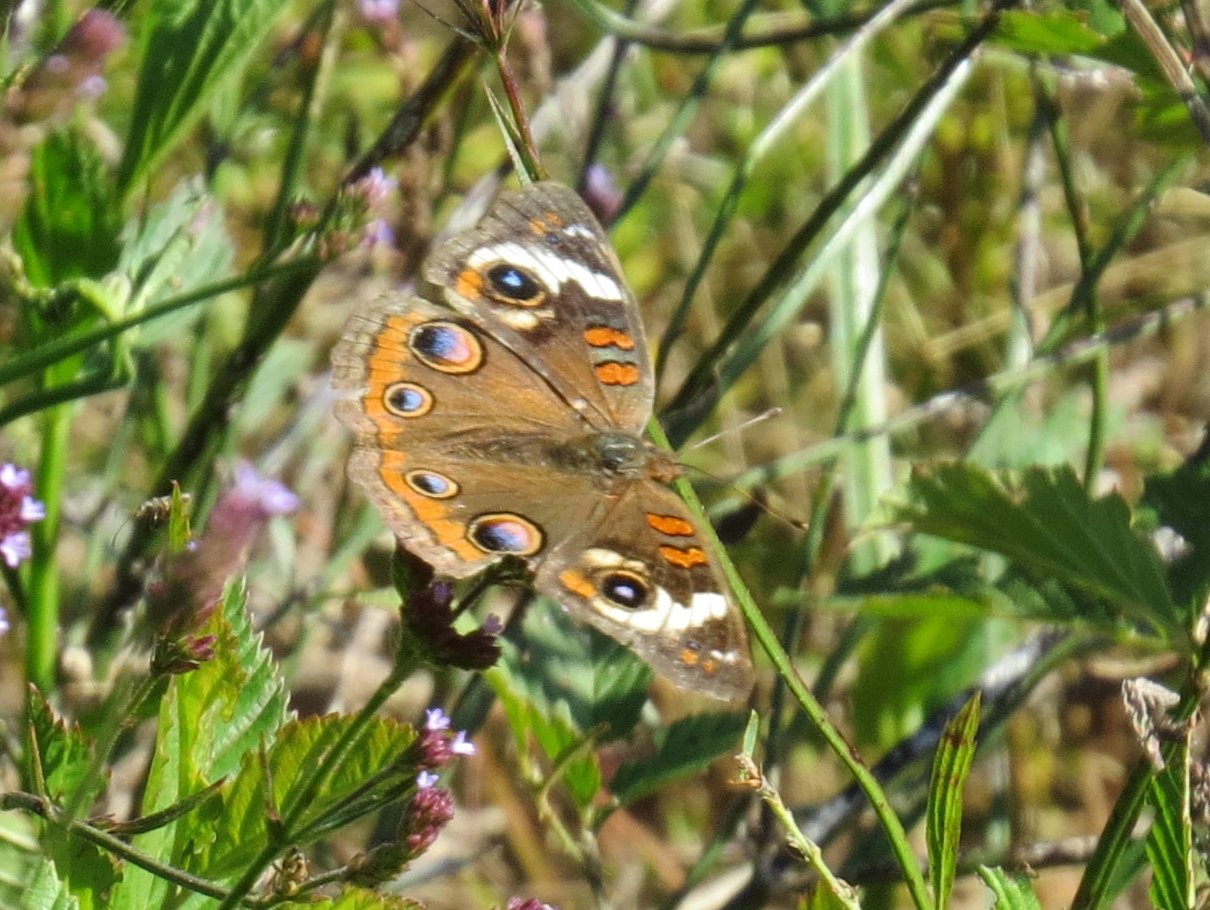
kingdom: Animalia
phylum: Arthropoda
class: Insecta
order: Lepidoptera
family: Nymphalidae
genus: Junonia
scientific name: Junonia coenia
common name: Common Buckeye
